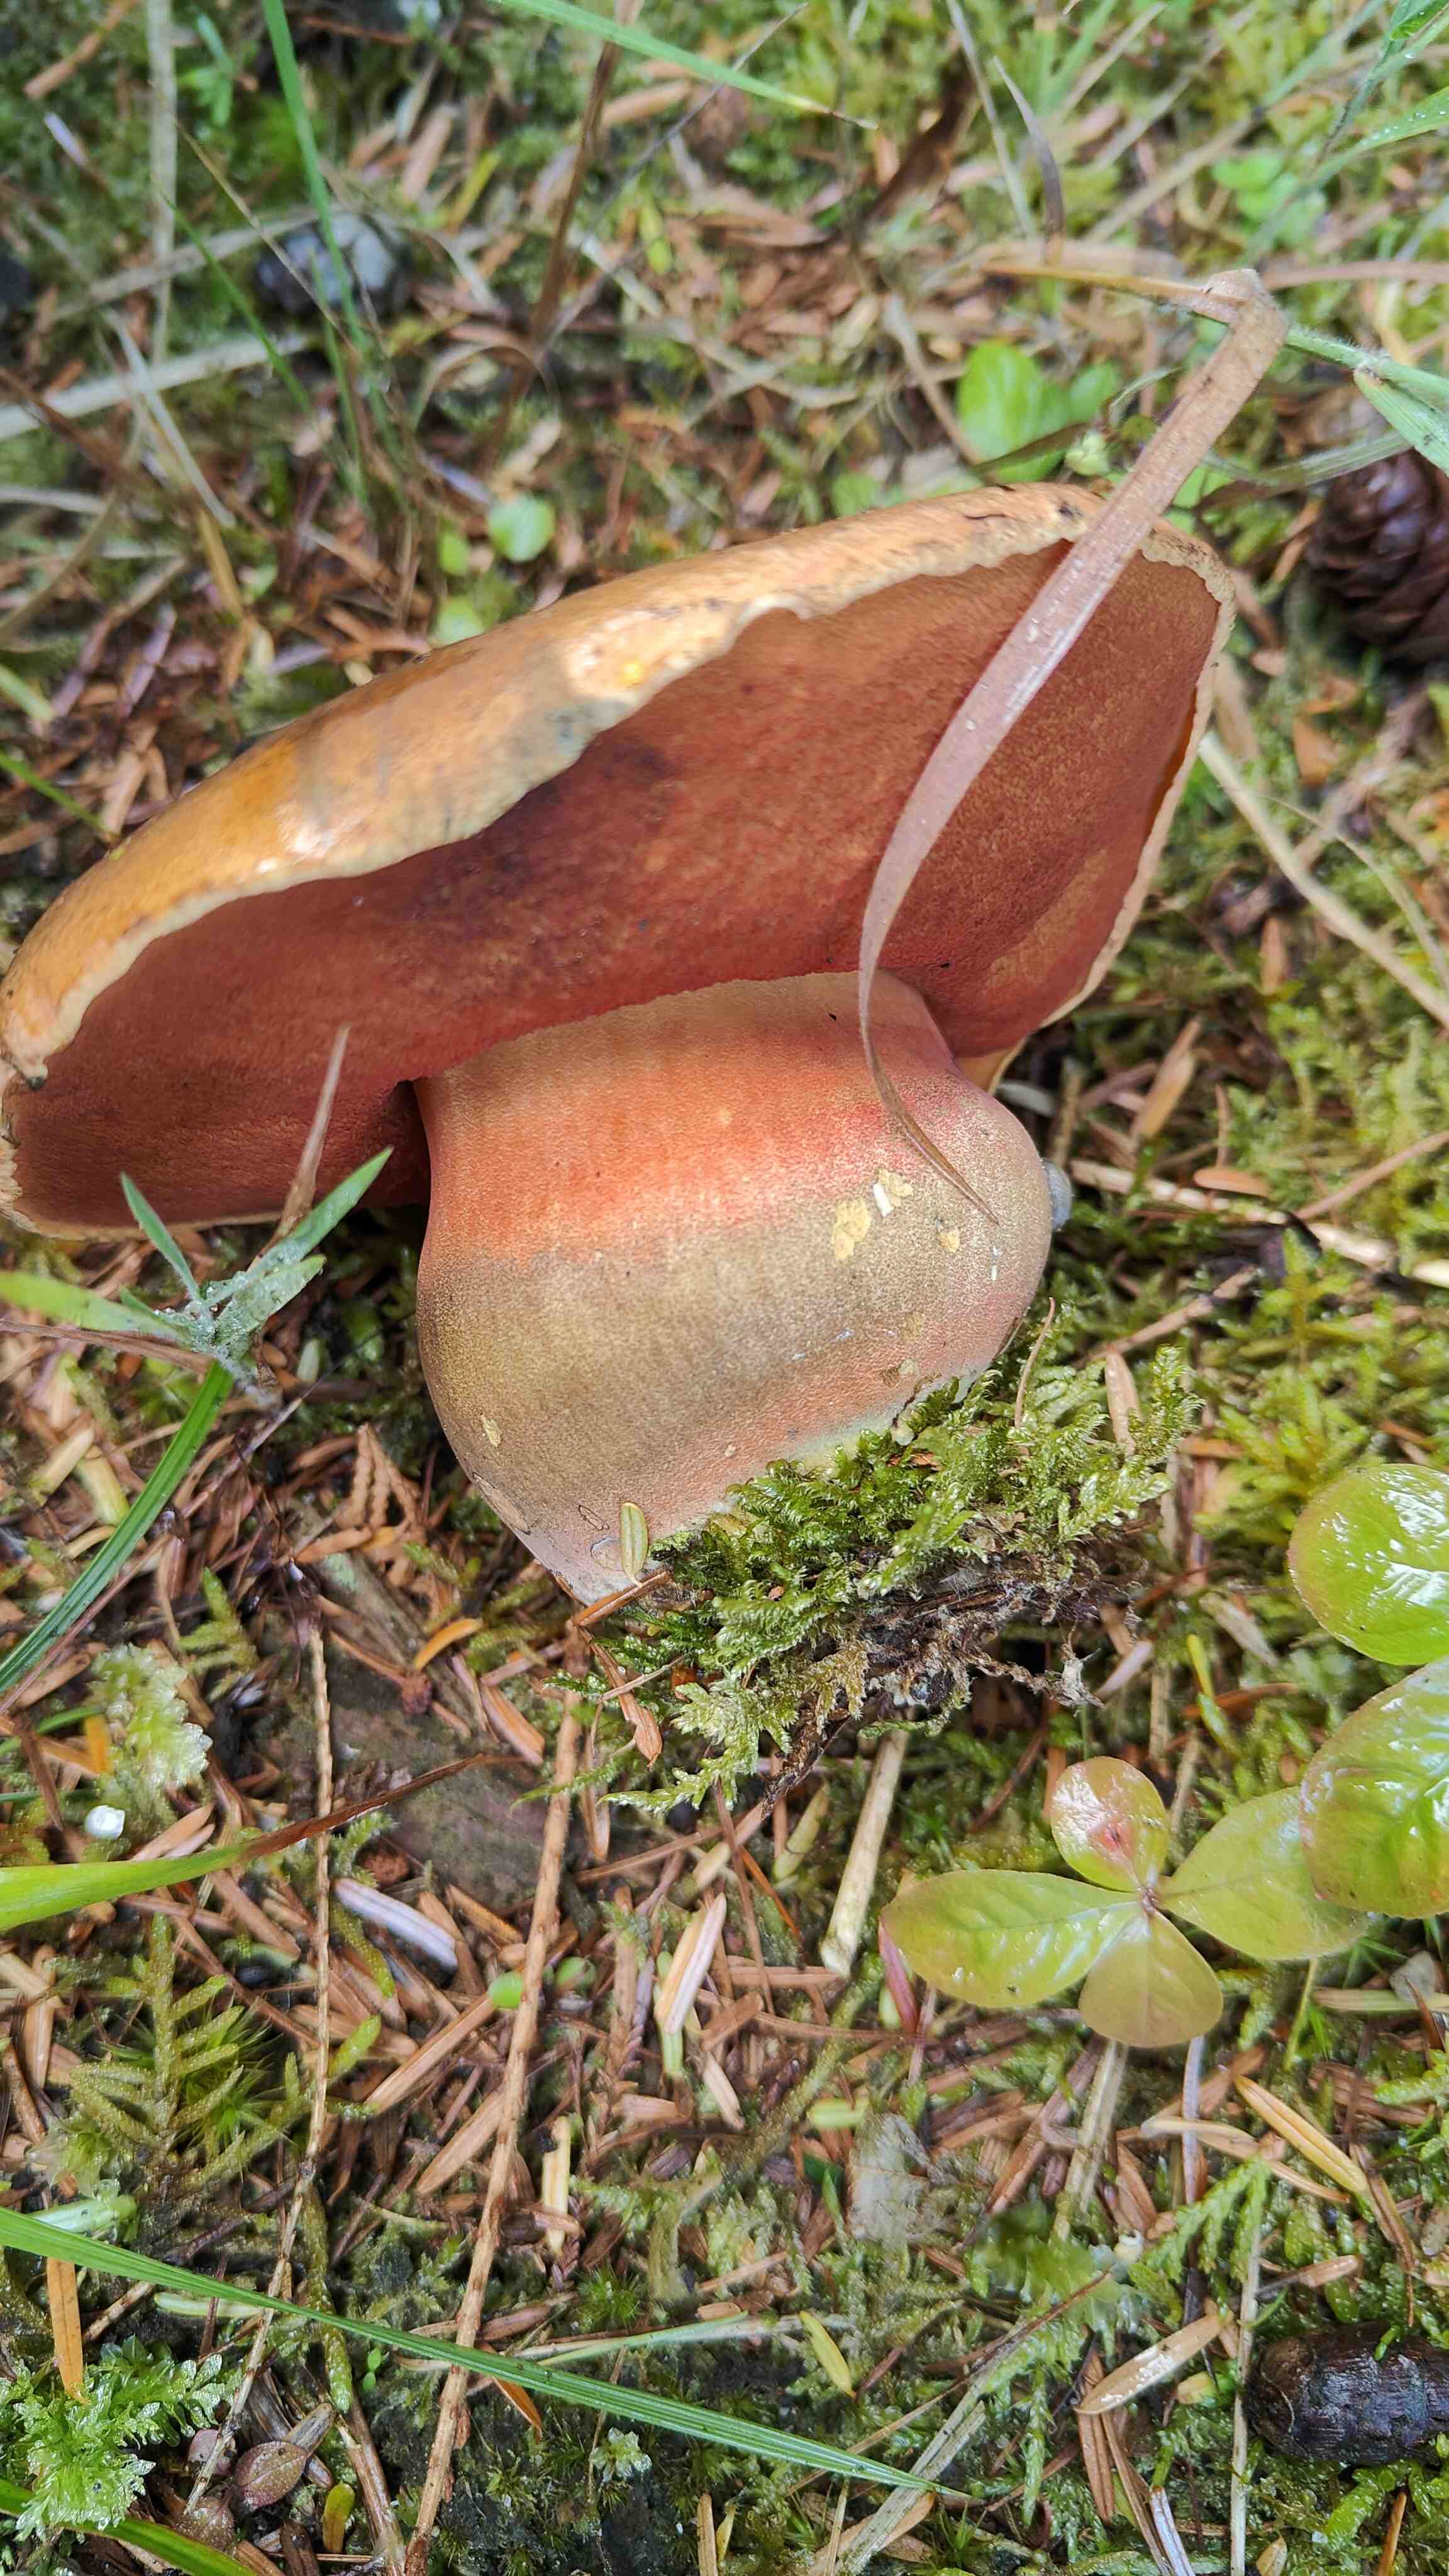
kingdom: Fungi
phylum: Basidiomycota
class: Agaricomycetes
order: Boletales
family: Boletaceae
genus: Neoboletus
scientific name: Neoboletus erythropus
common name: punktstokket indigorørhat
